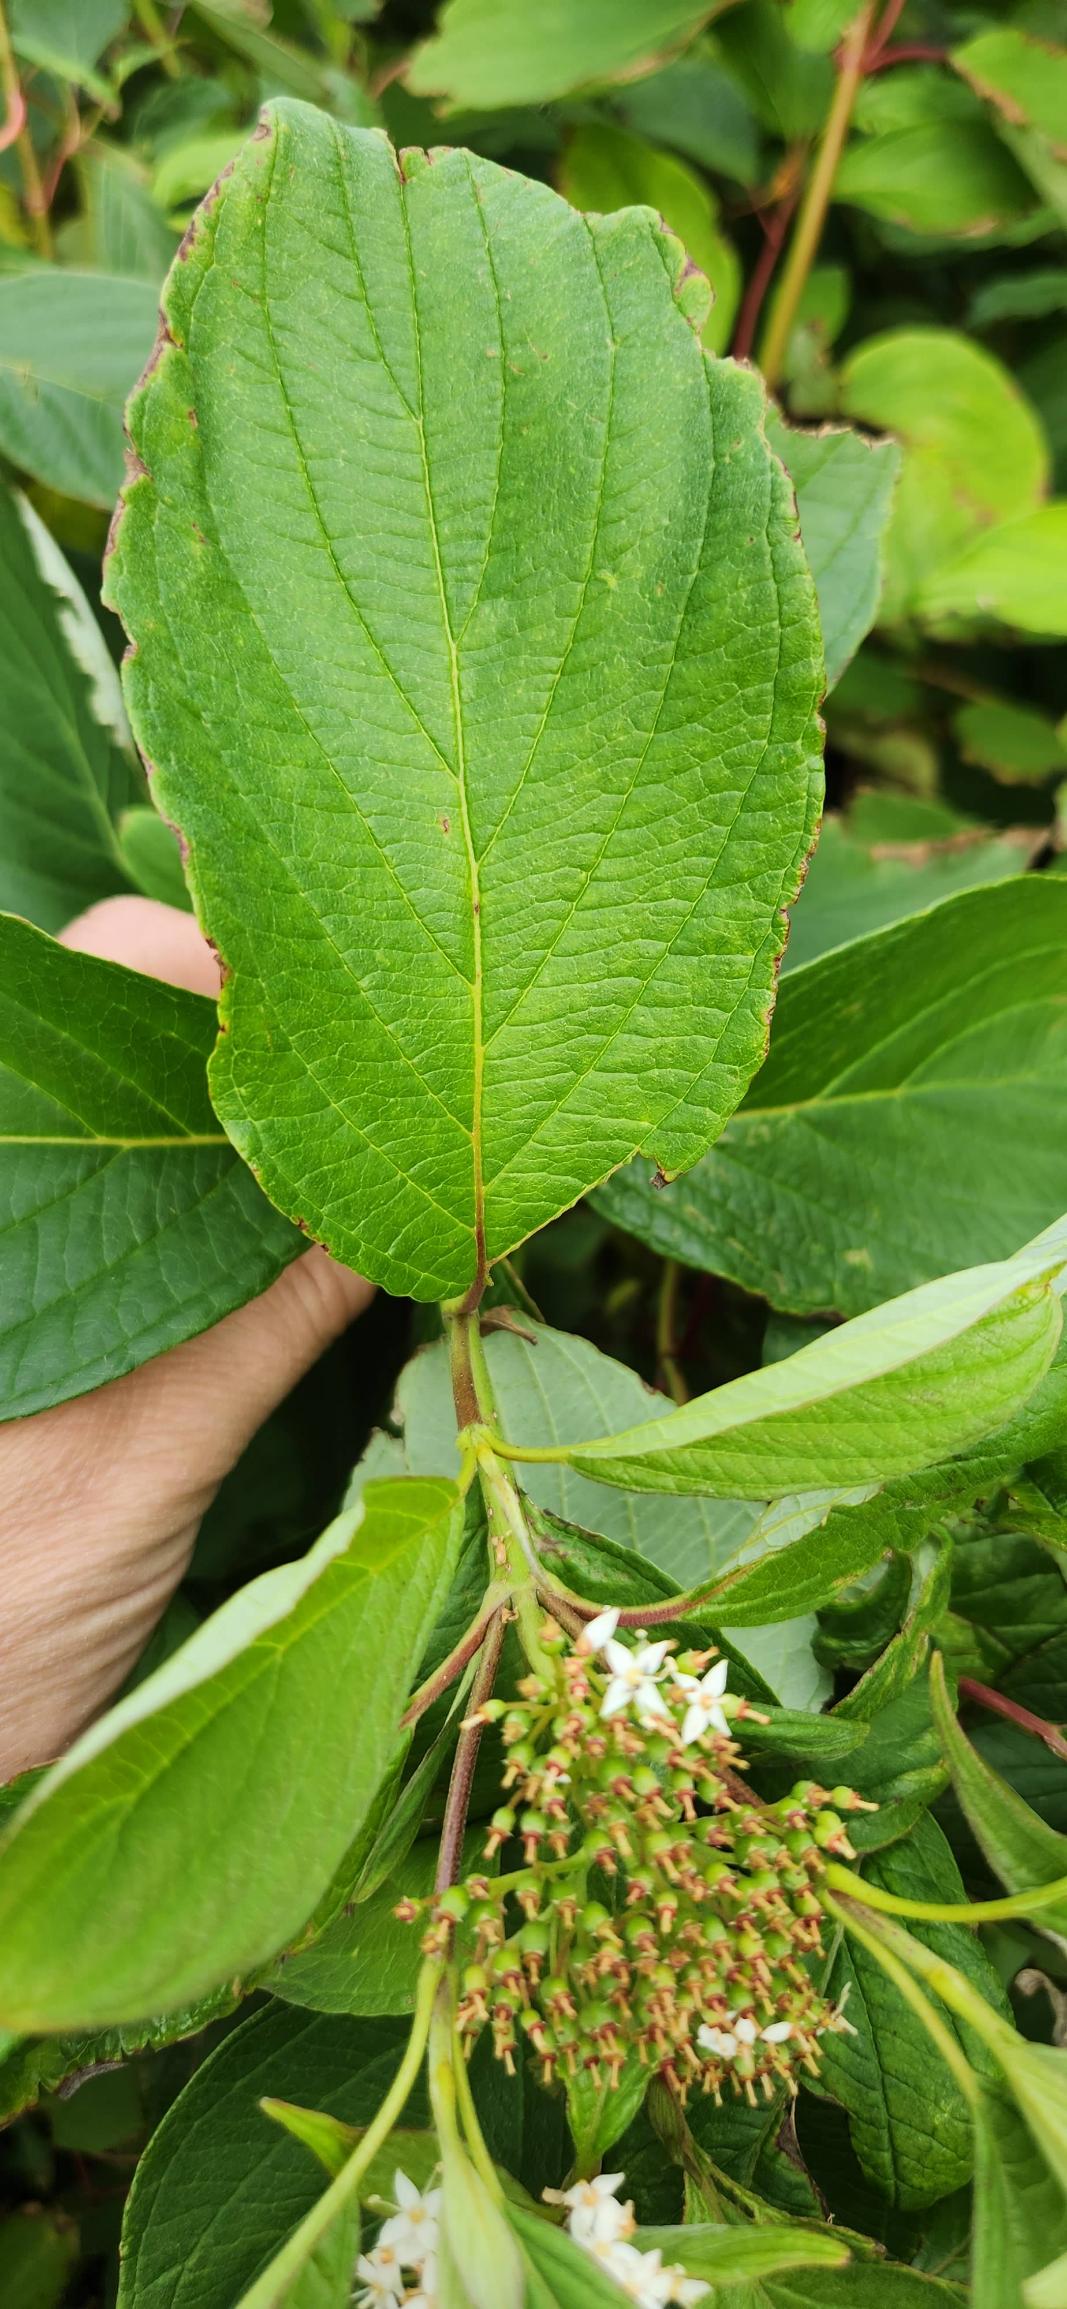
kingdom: Plantae
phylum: Tracheophyta
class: Magnoliopsida
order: Cornales
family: Cornaceae
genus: Cornus
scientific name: Cornus sericea
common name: Krybende kornel
